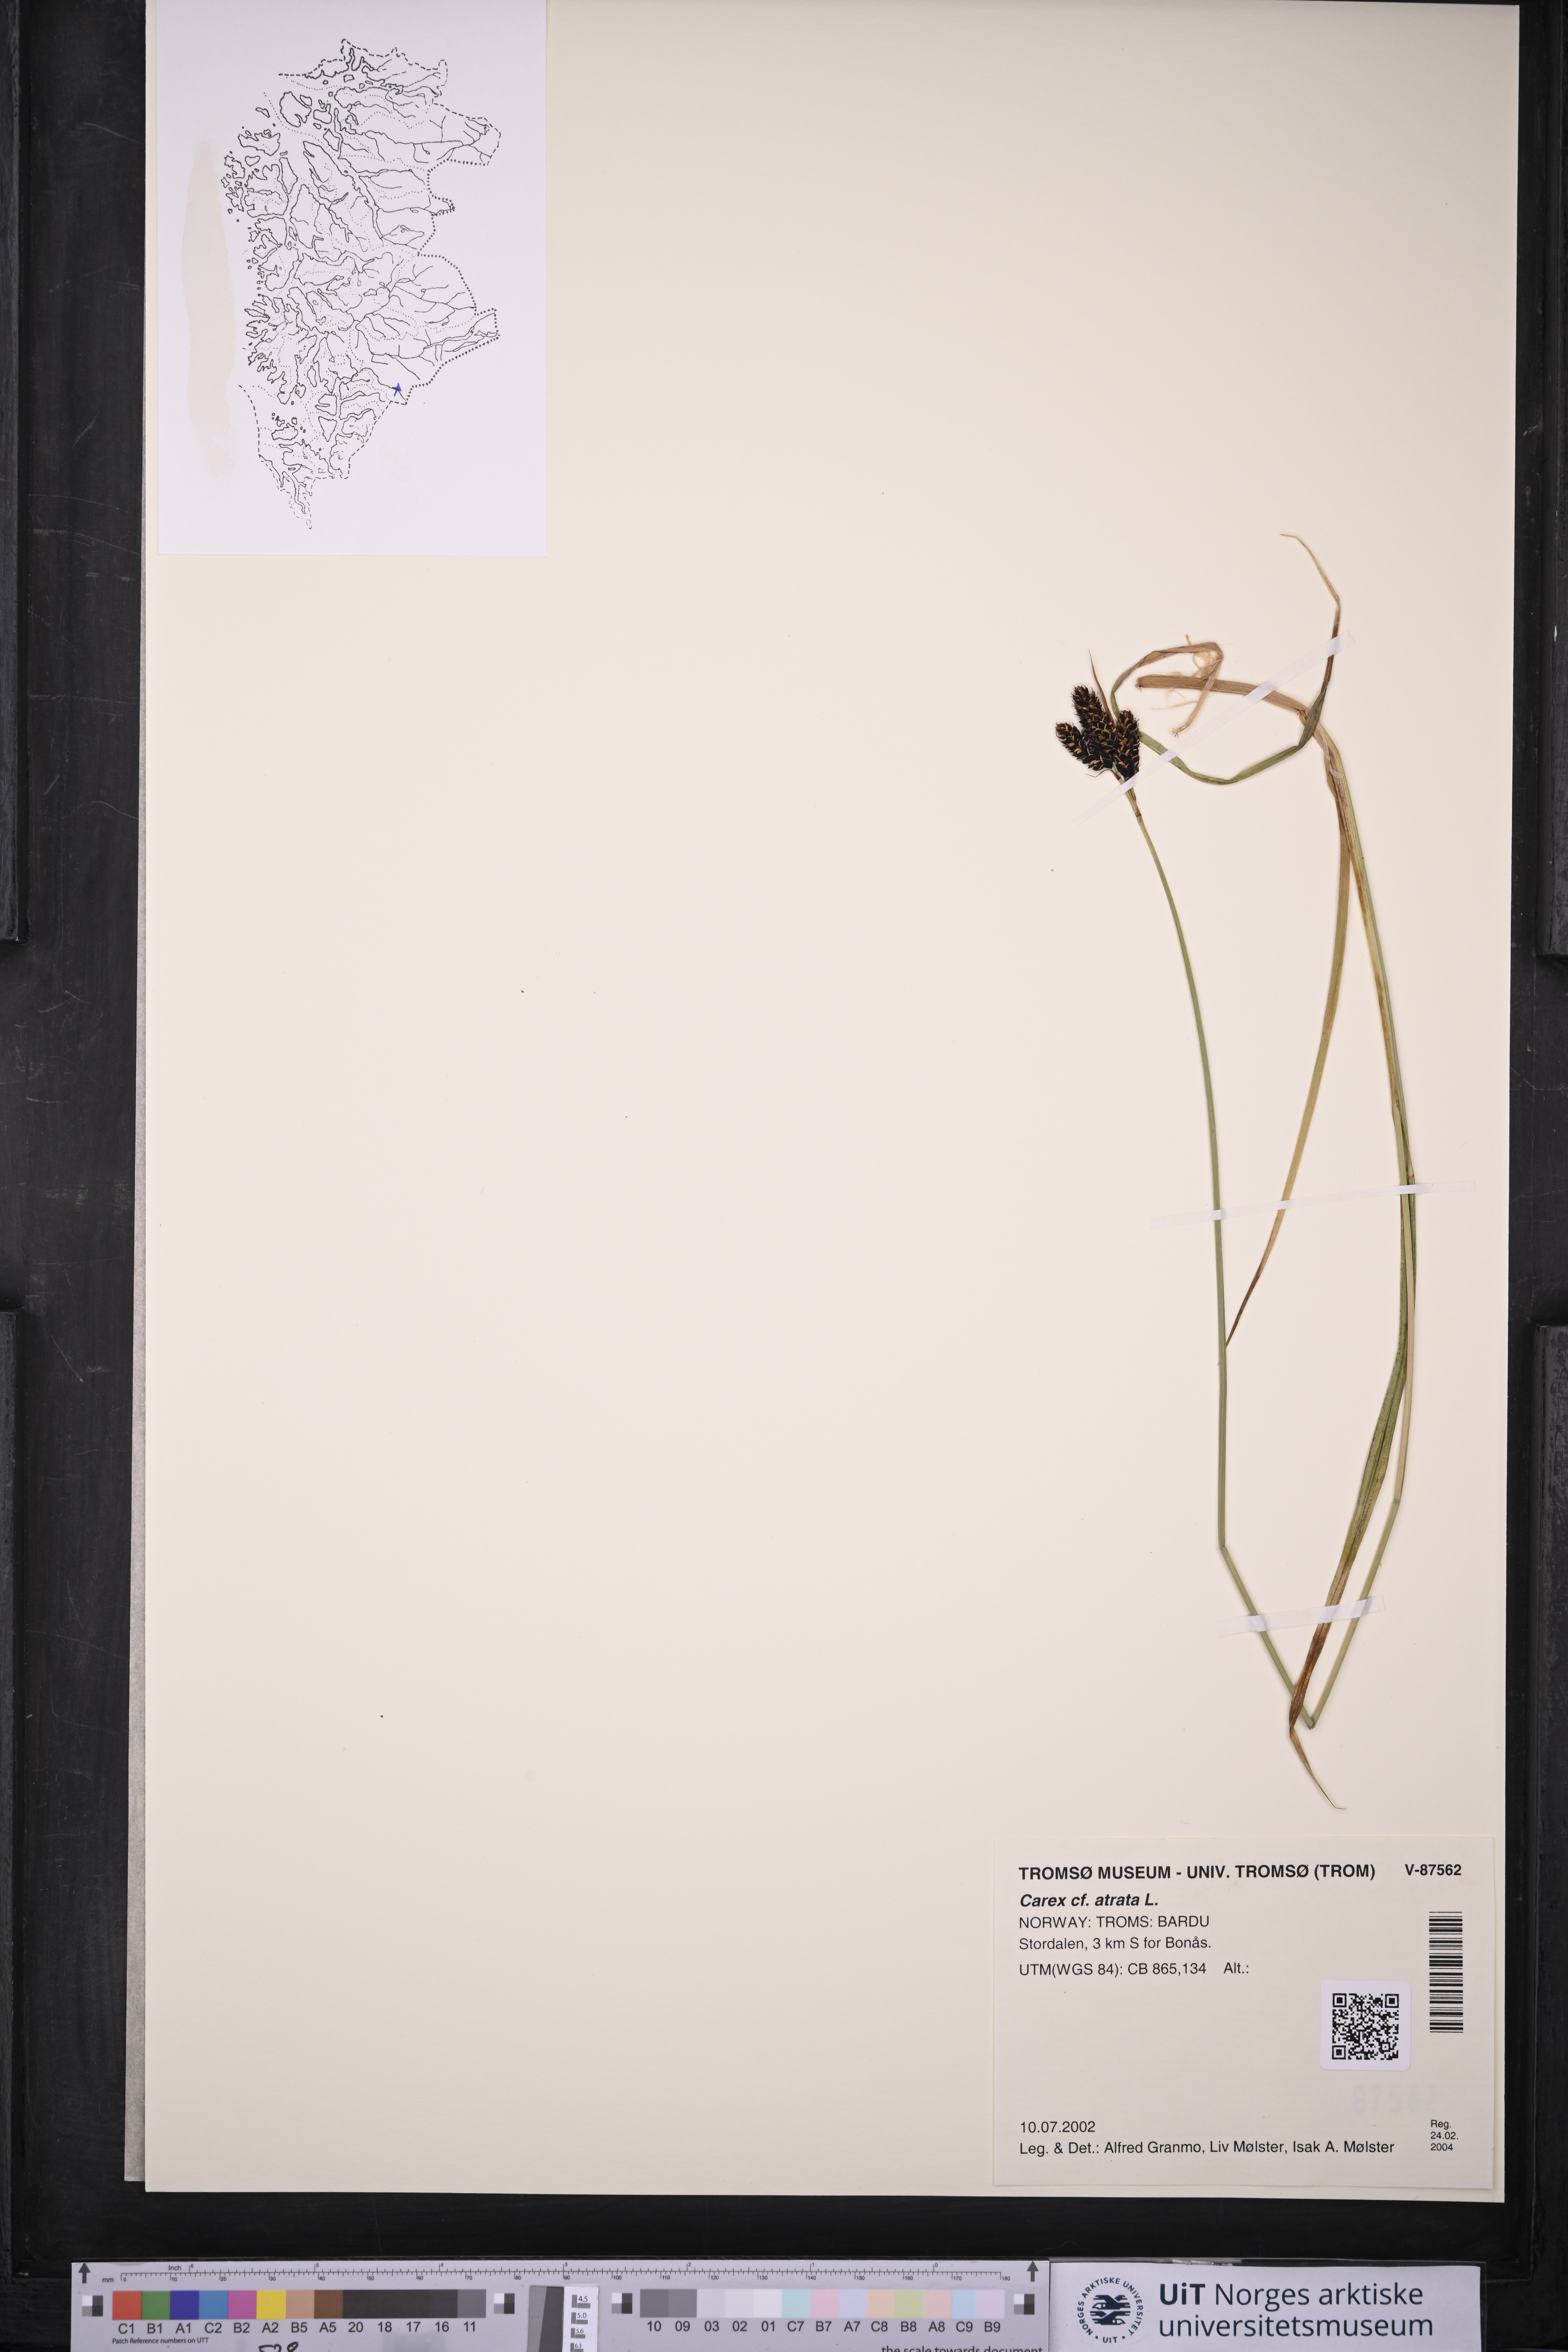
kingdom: Plantae
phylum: Tracheophyta
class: Liliopsida
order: Poales
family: Cyperaceae
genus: Carex
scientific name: Carex atrata
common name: Black alpine sedge
